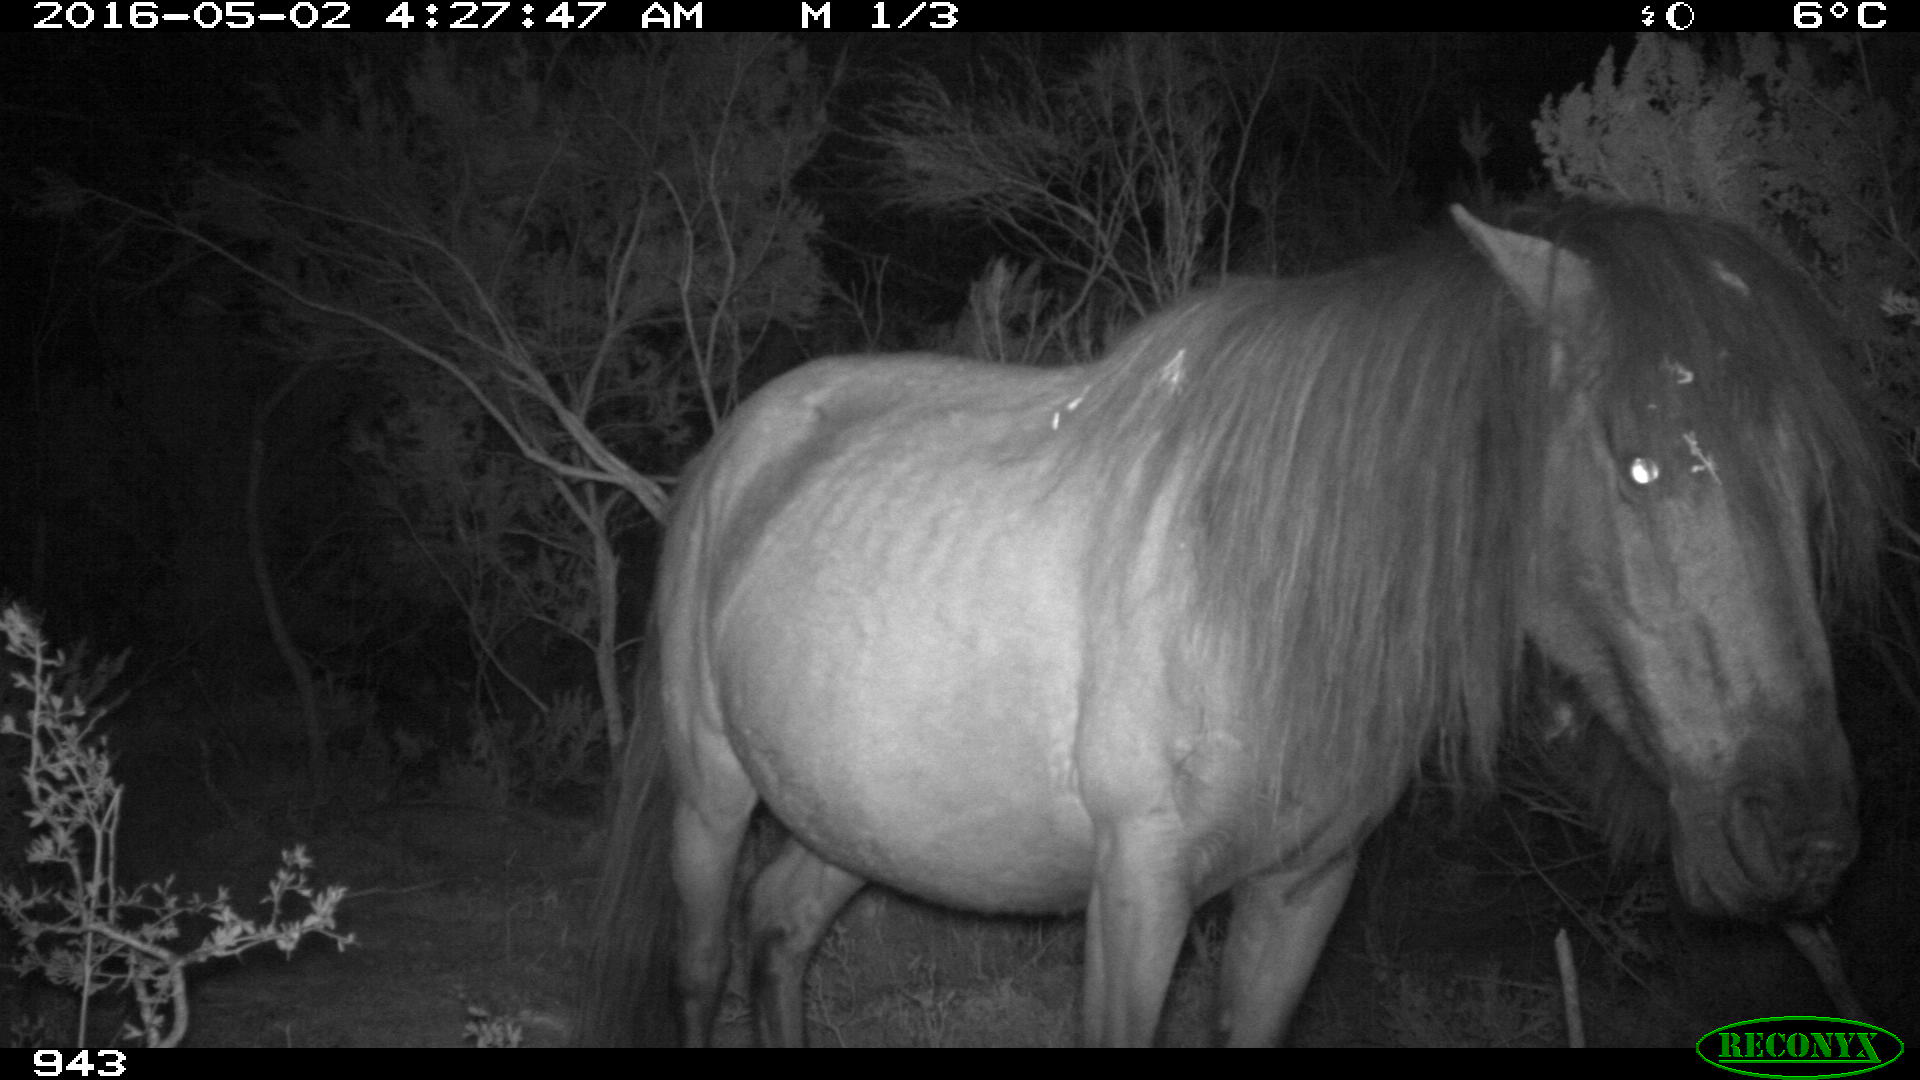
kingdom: Animalia
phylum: Chordata
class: Mammalia
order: Perissodactyla
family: Equidae
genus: Equus
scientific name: Equus caballus
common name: Horse
